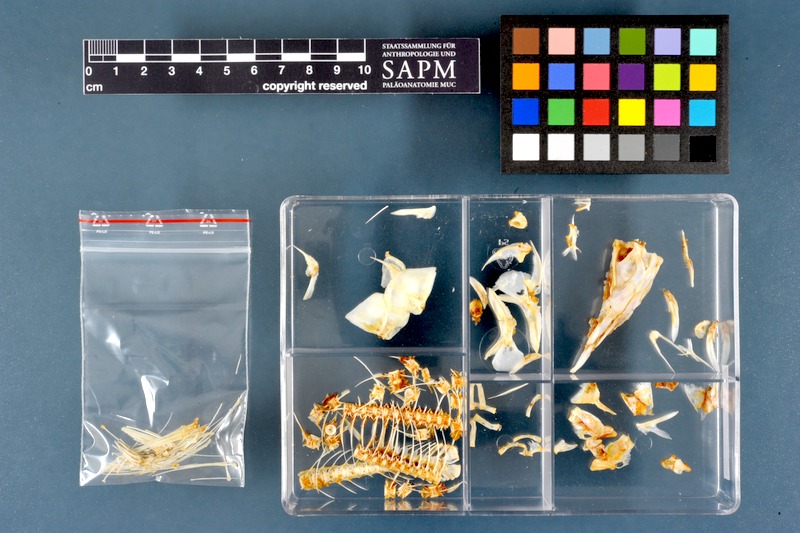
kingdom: Animalia
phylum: Chordata
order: Osteoglossiformes
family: Mormyridae
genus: Mormyrus
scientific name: Mormyrus caschive
